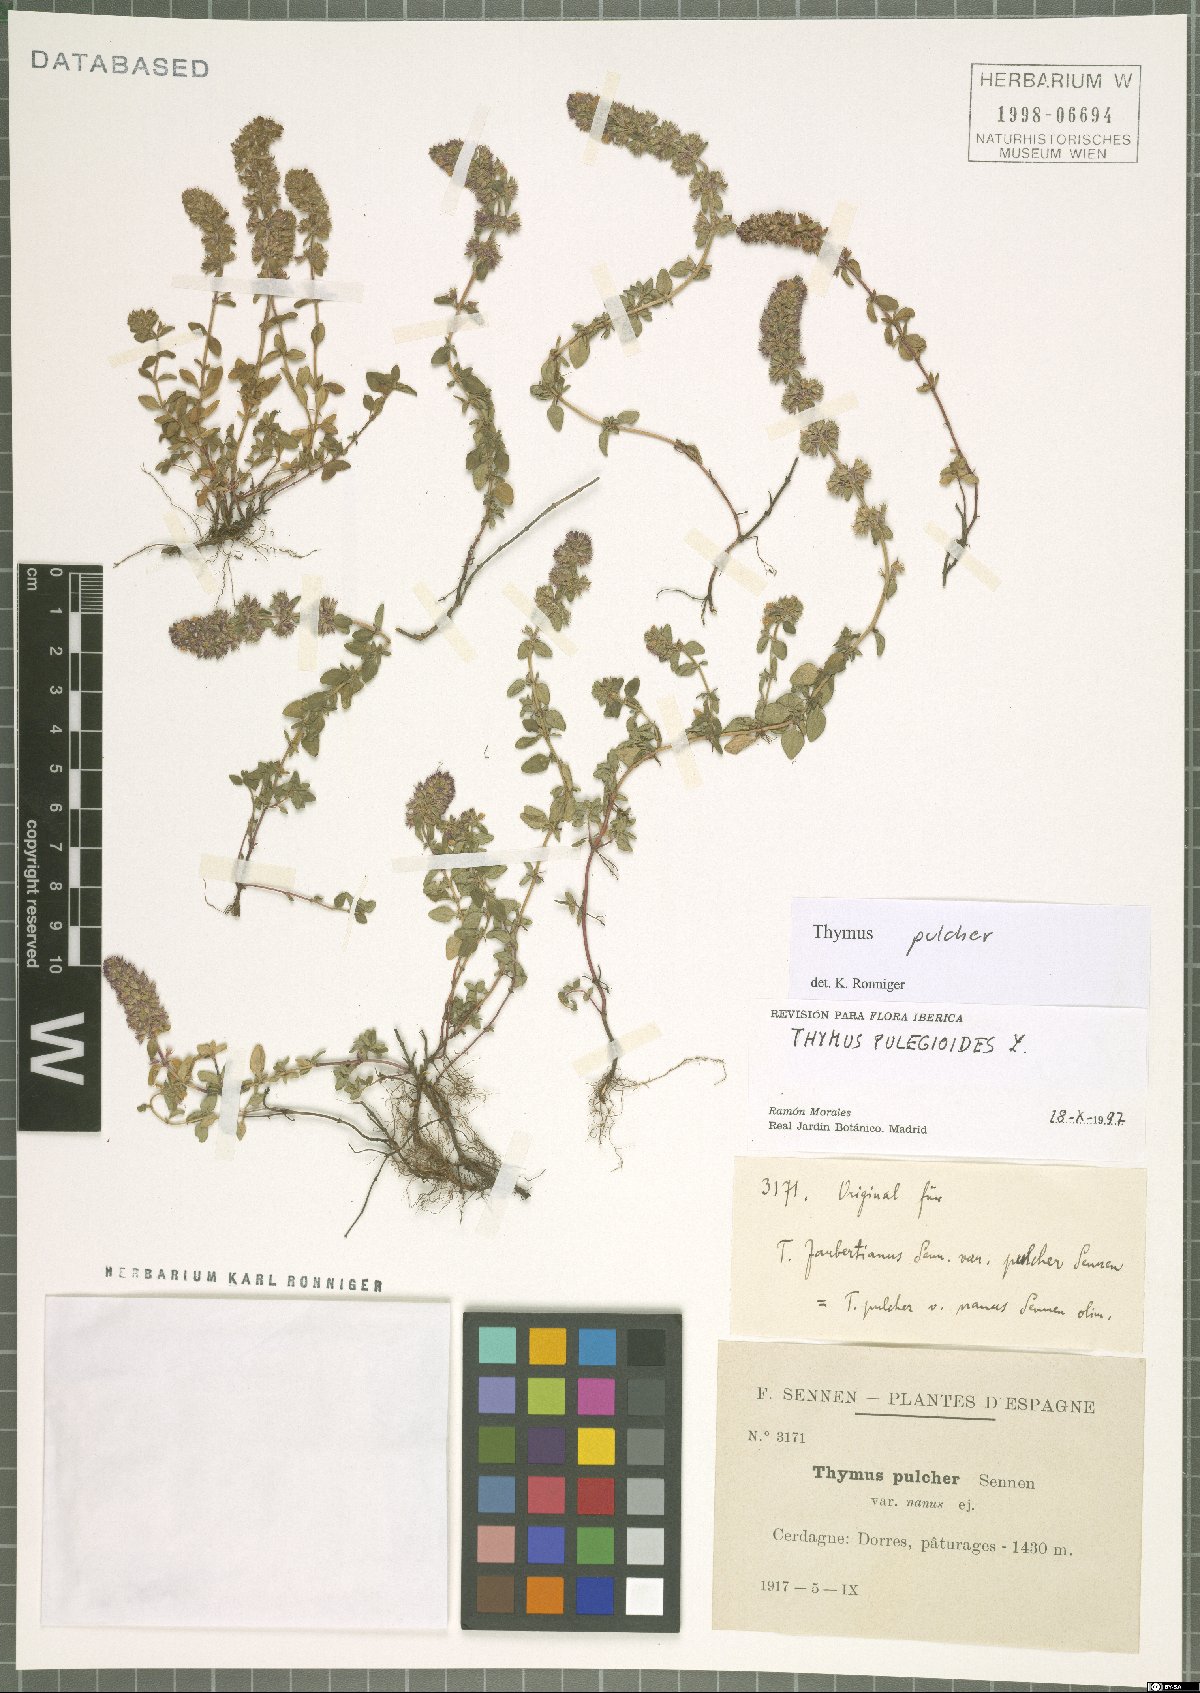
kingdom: Plantae
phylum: Tracheophyta
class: Magnoliopsida
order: Lamiales
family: Lamiaceae
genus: Thymus
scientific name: Thymus pulegioides
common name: Large thyme
